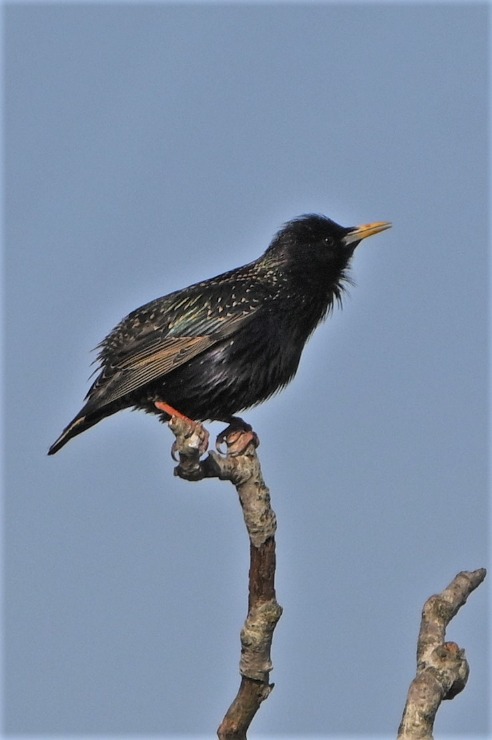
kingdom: Animalia
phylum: Chordata
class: Aves
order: Passeriformes
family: Sturnidae
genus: Sturnus
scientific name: Sturnus vulgaris
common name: Stær
